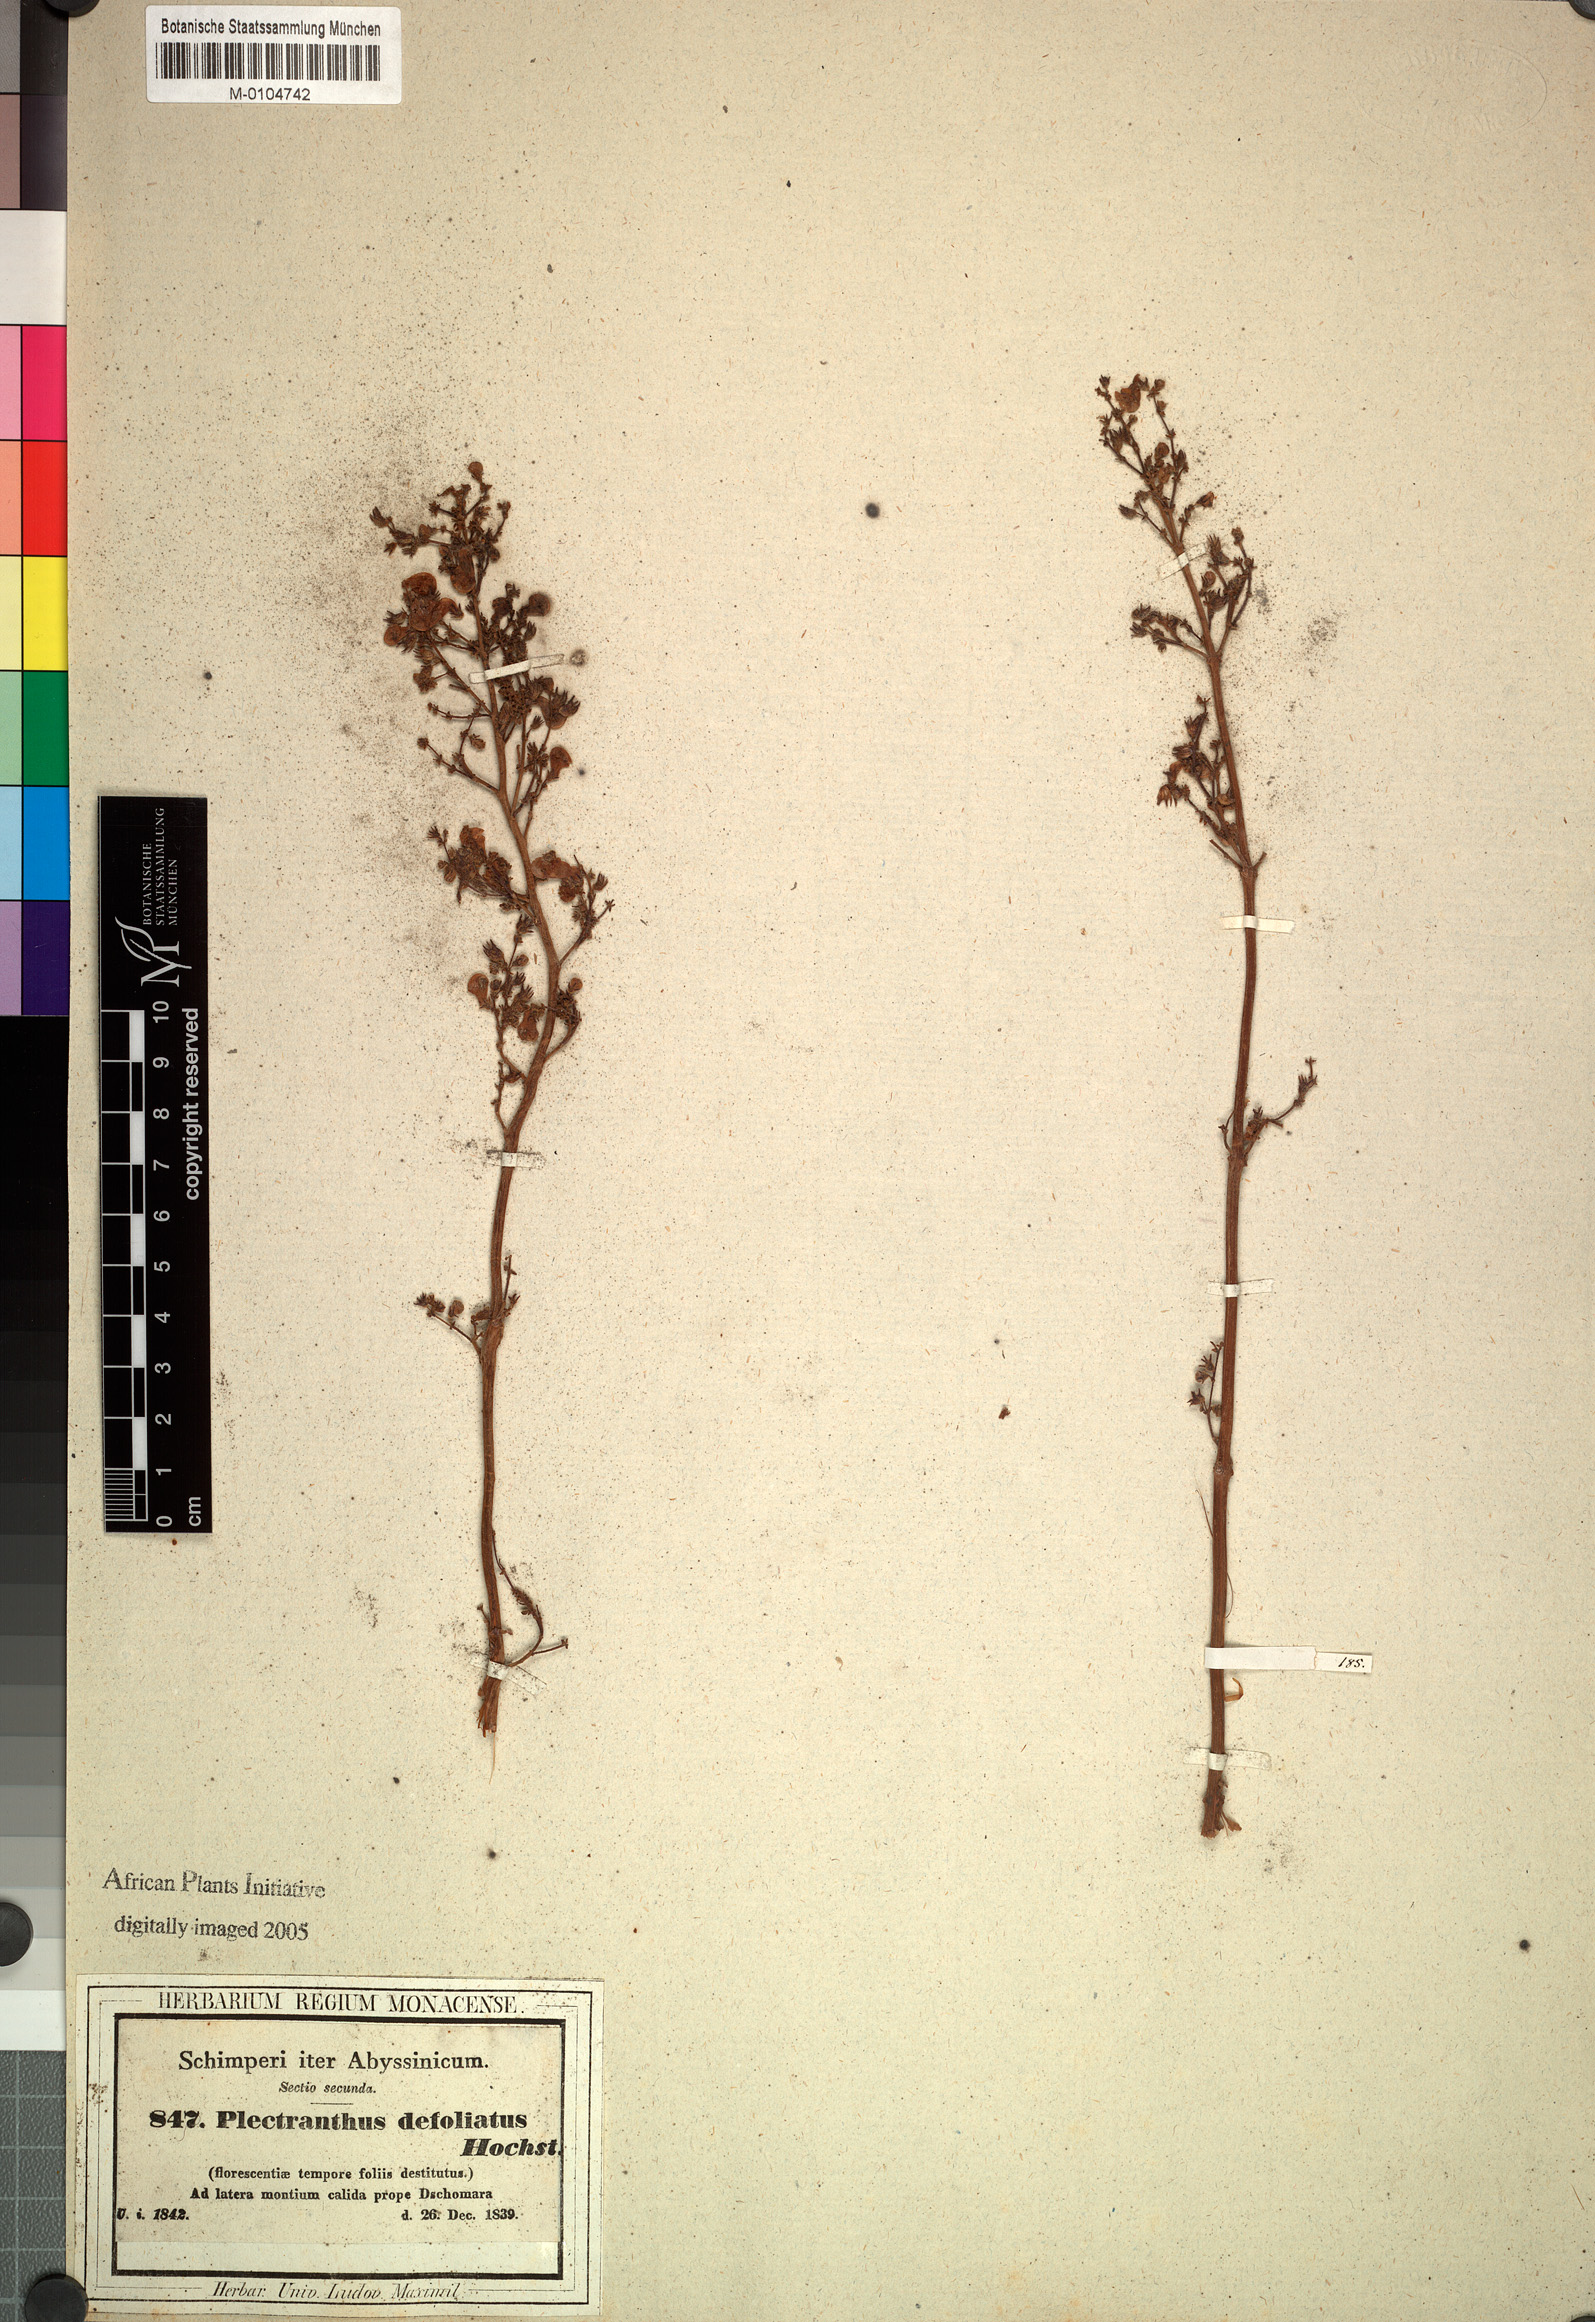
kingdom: Plantae
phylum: Tracheophyta
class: Magnoliopsida
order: Lamiales
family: Lamiaceae
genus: Coleus
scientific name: Coleus defoliatus
